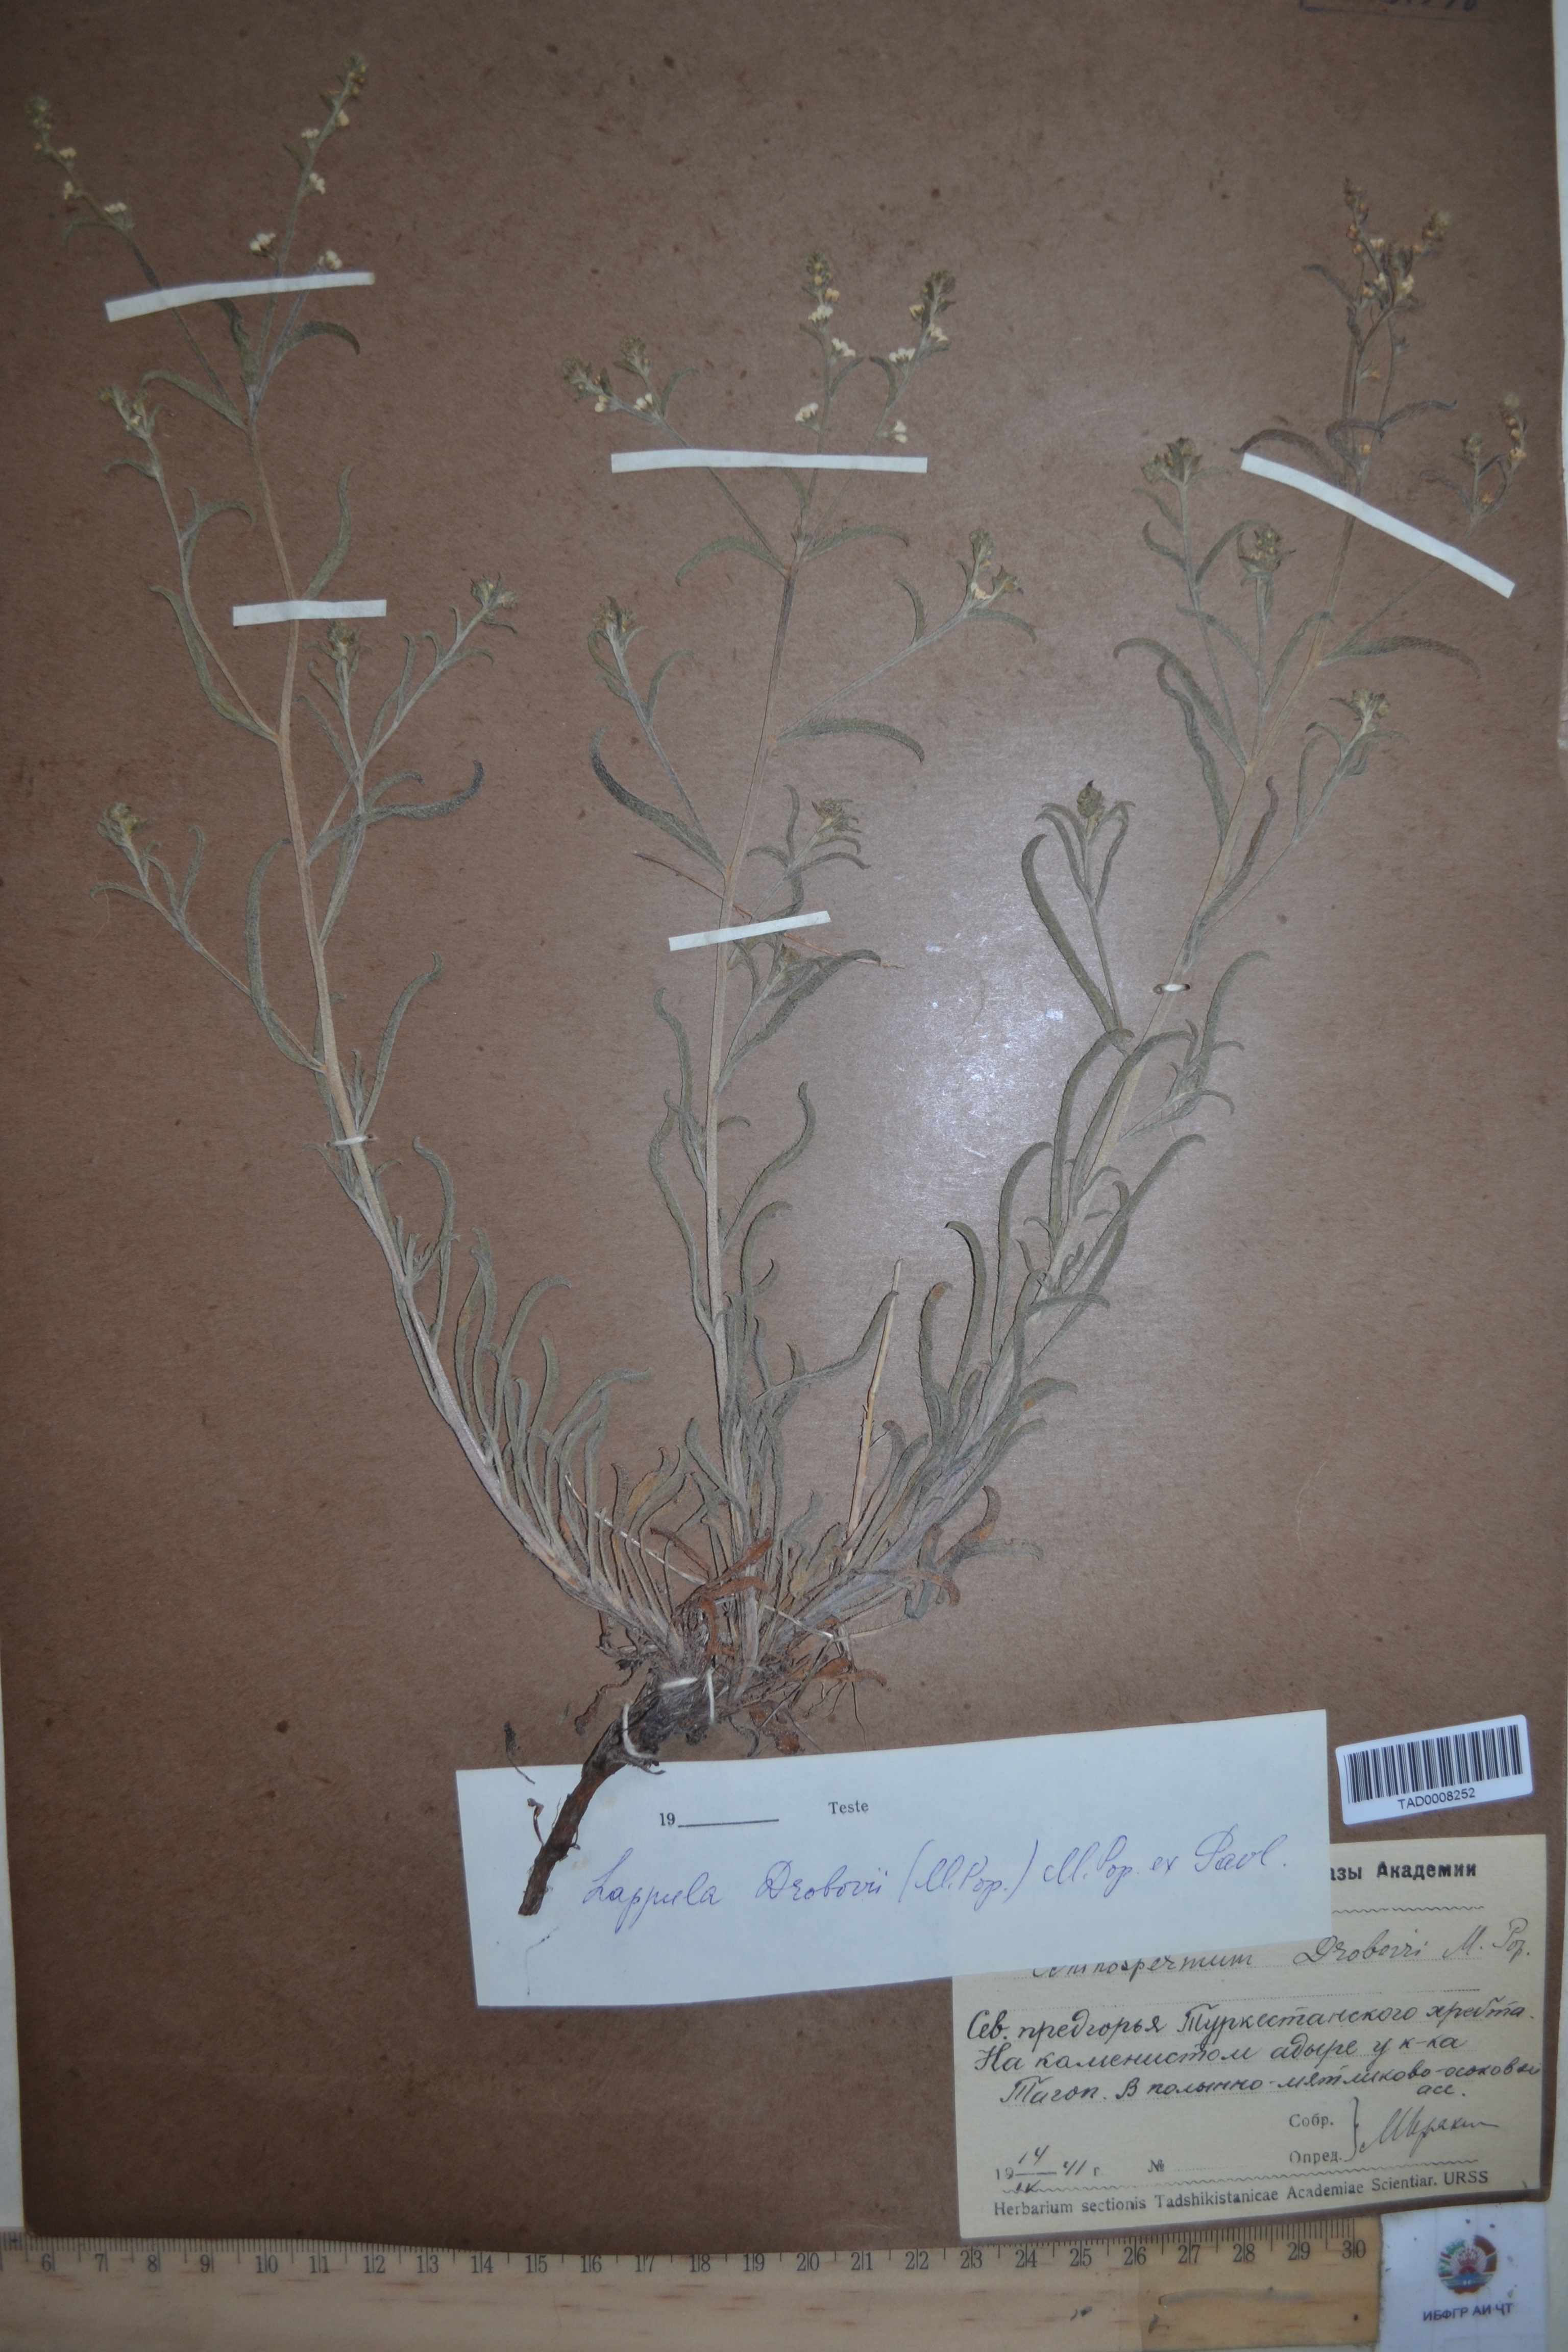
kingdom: Plantae
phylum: Tracheophyta
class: Magnoliopsida
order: Boraginales
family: Boraginaceae
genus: Rochelia
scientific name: Rochelia drobovii
